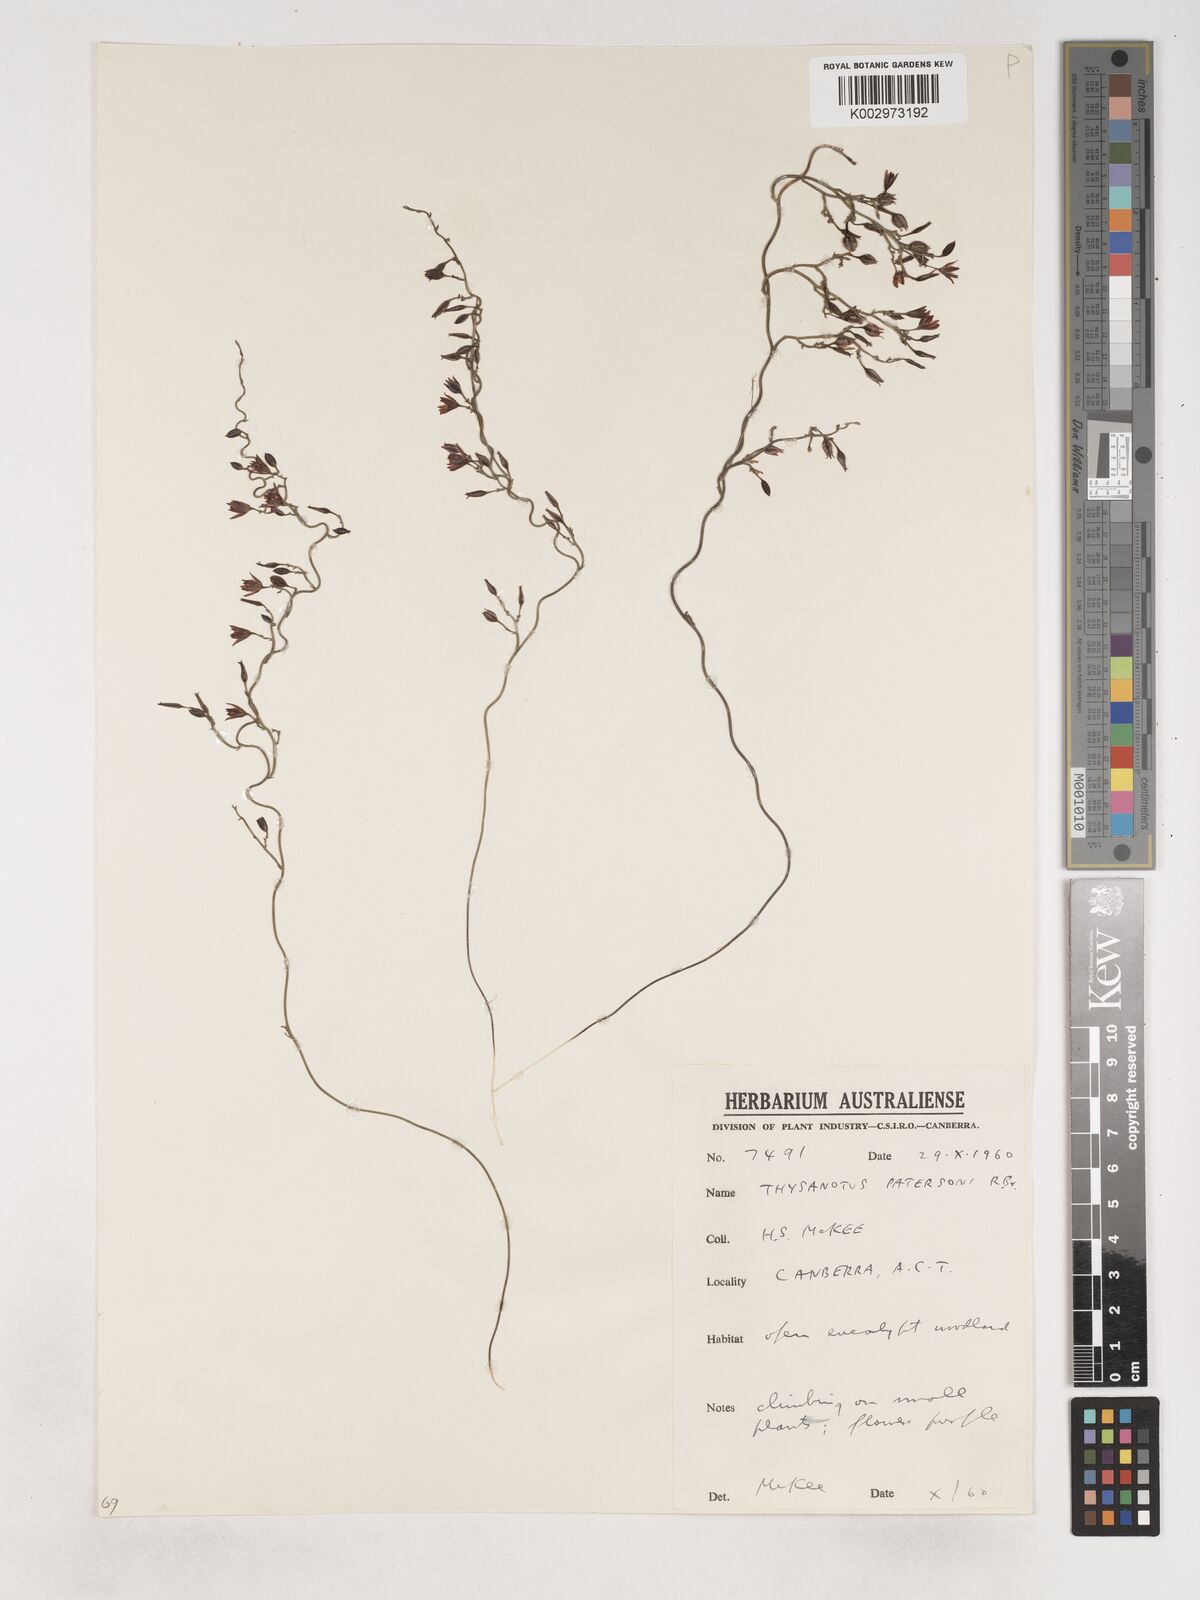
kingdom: Plantae
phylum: Tracheophyta
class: Liliopsida
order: Asparagales
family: Asparagaceae
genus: Thysanotus
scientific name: Thysanotus patersonii
